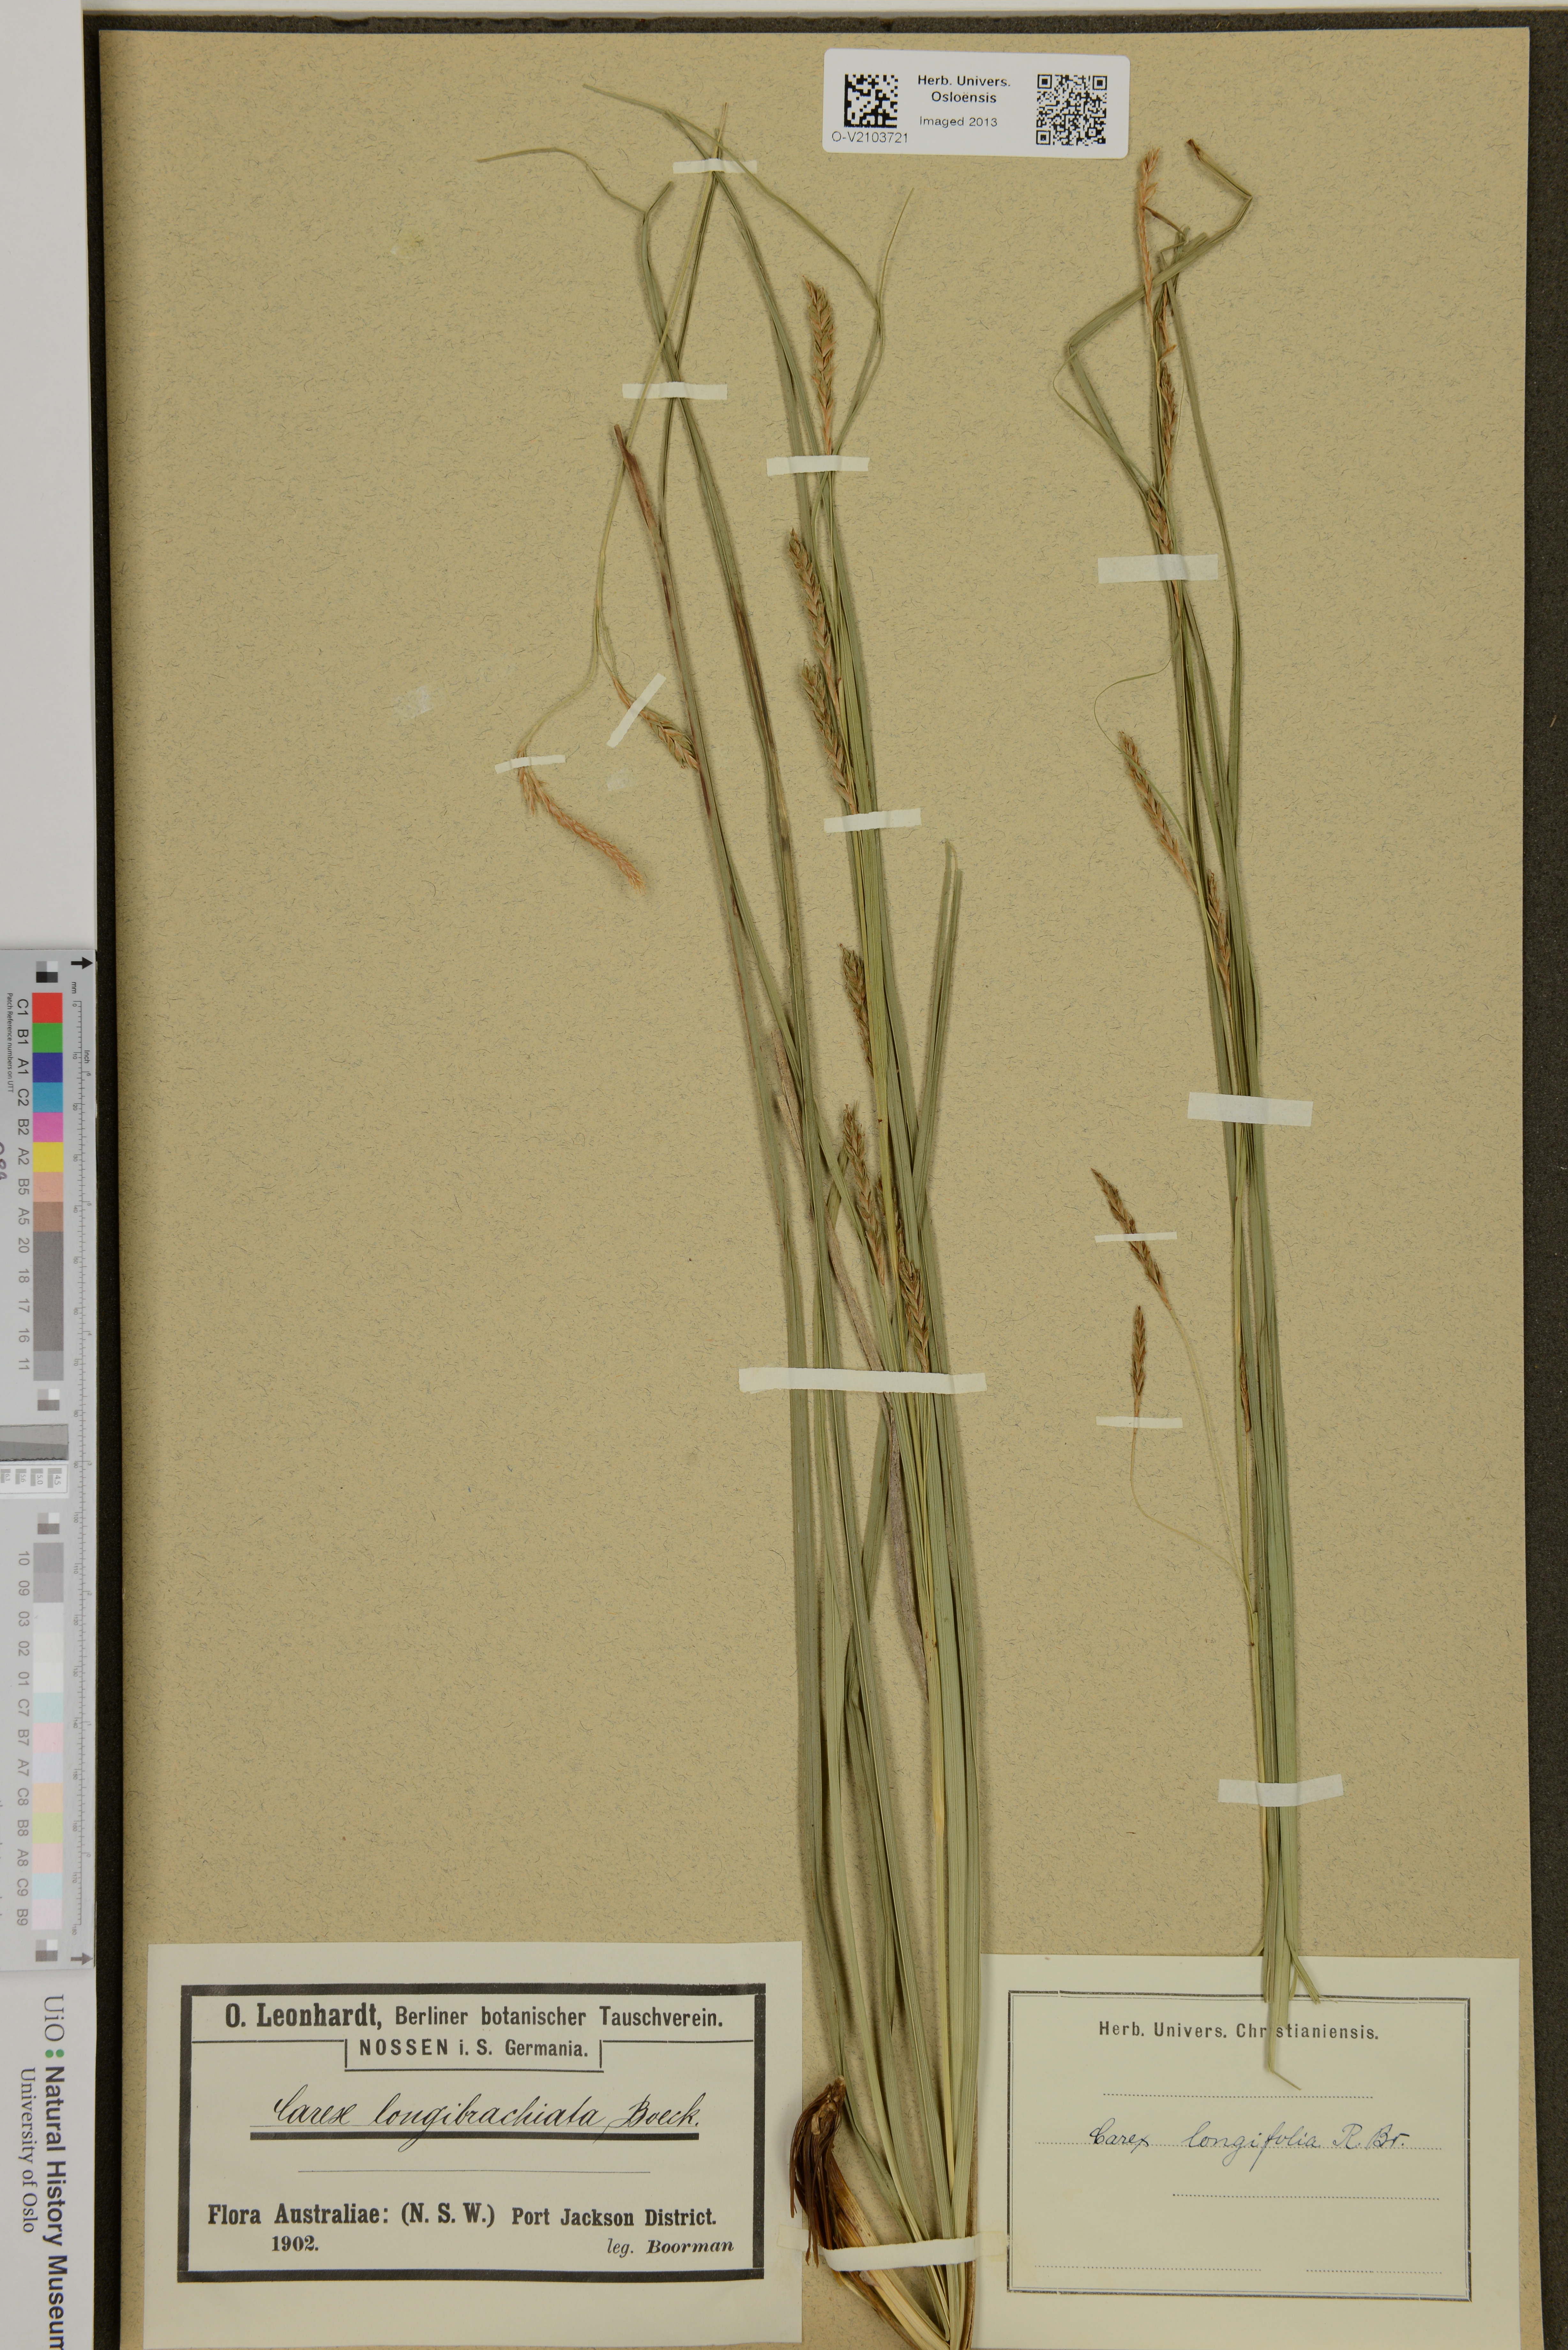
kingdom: Plantae
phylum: Tracheophyta
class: Liliopsida
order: Poales
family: Cyperaceae
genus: Carex
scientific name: Carex
